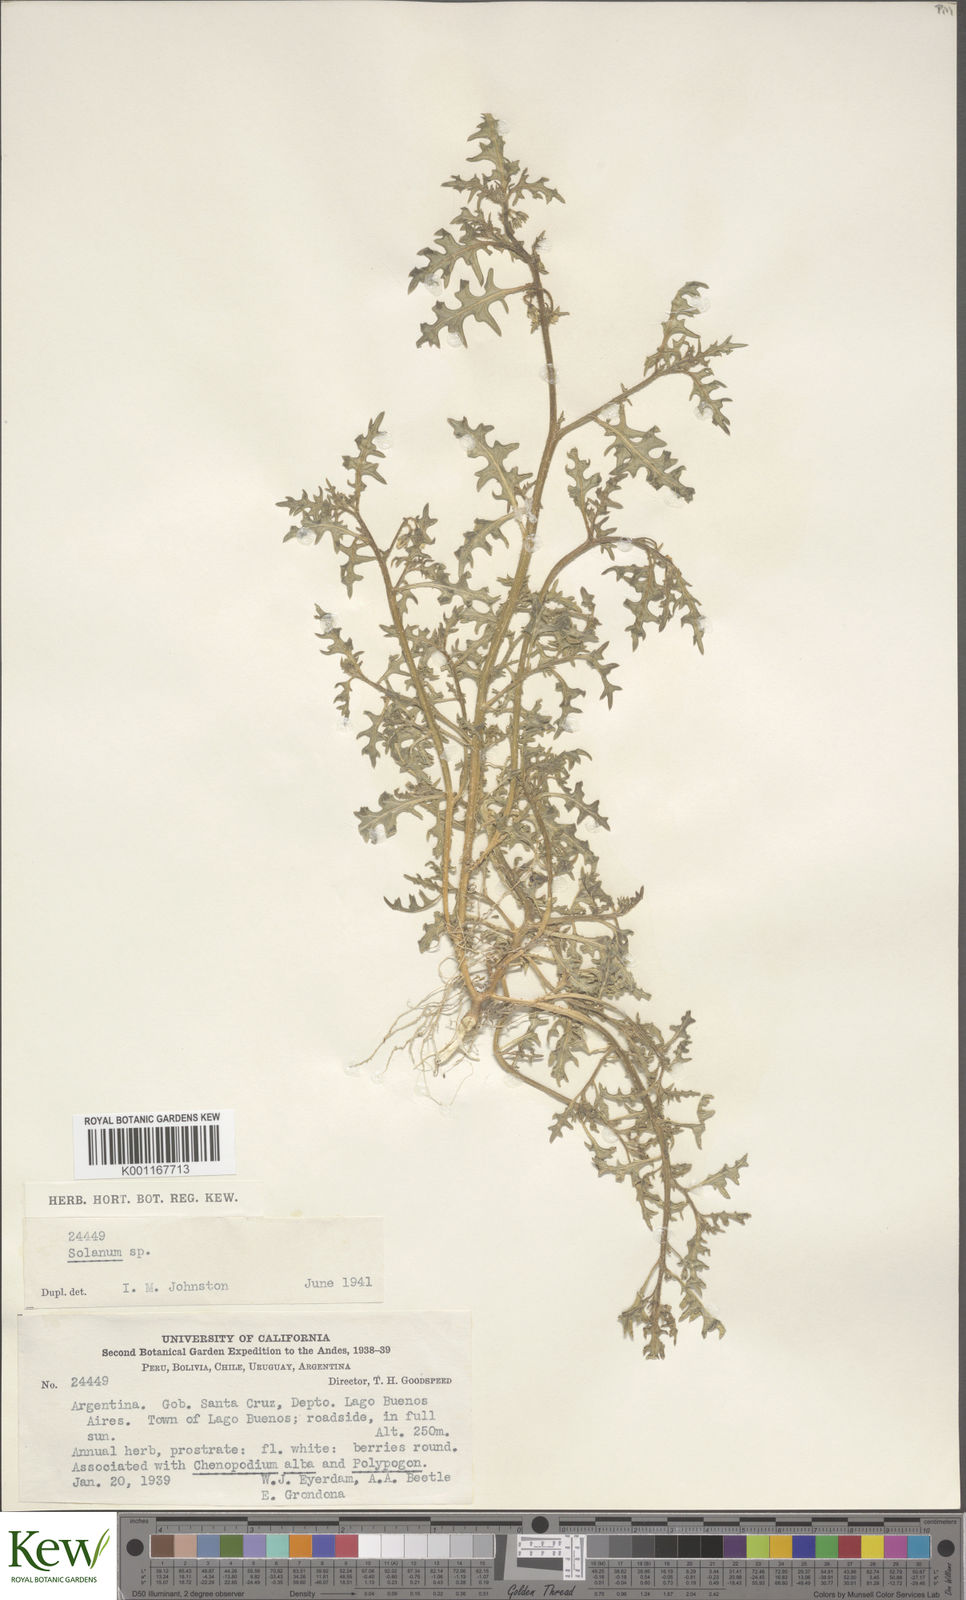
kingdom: Plantae
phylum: Tracheophyta
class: Magnoliopsida
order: Solanales
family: Solanaceae
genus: Solanum
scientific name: Solanum triflorum
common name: Small nightshade
